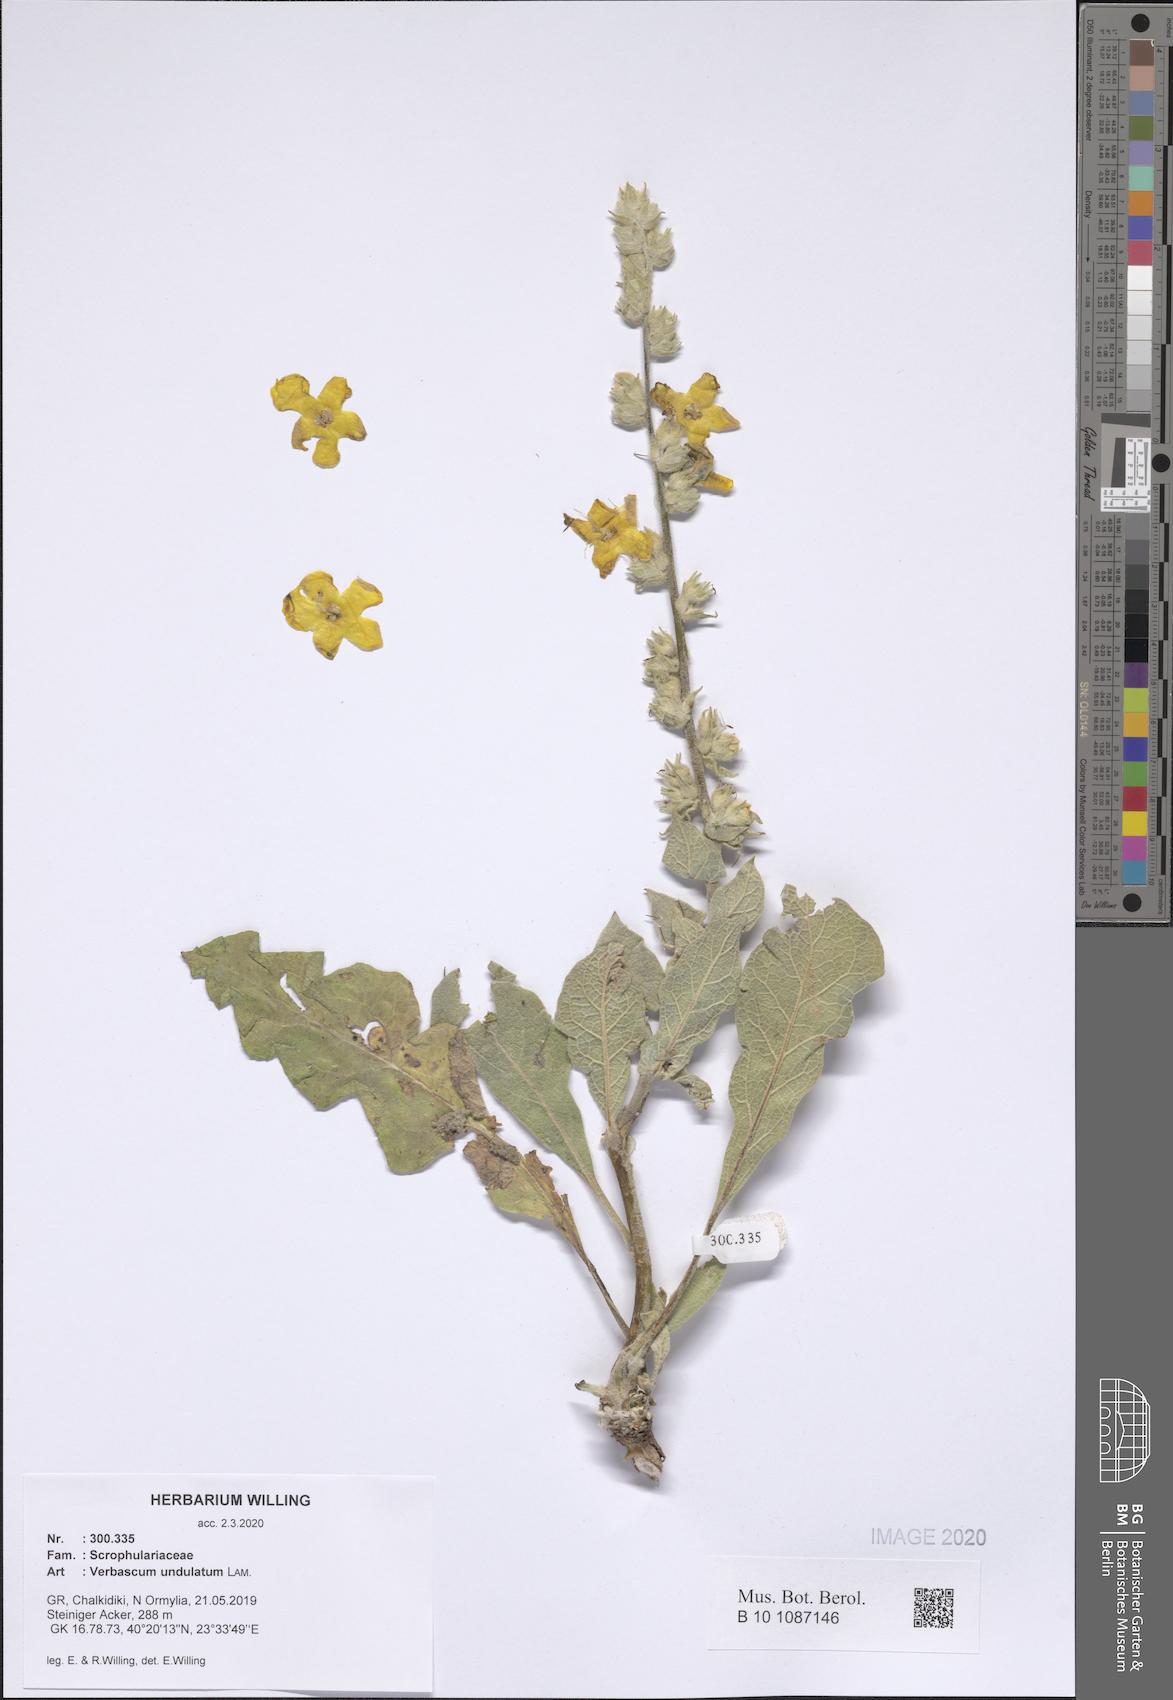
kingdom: Plantae
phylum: Tracheophyta
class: Magnoliopsida
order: Lamiales
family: Scrophulariaceae
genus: Verbascum
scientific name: Verbascum undulatum
